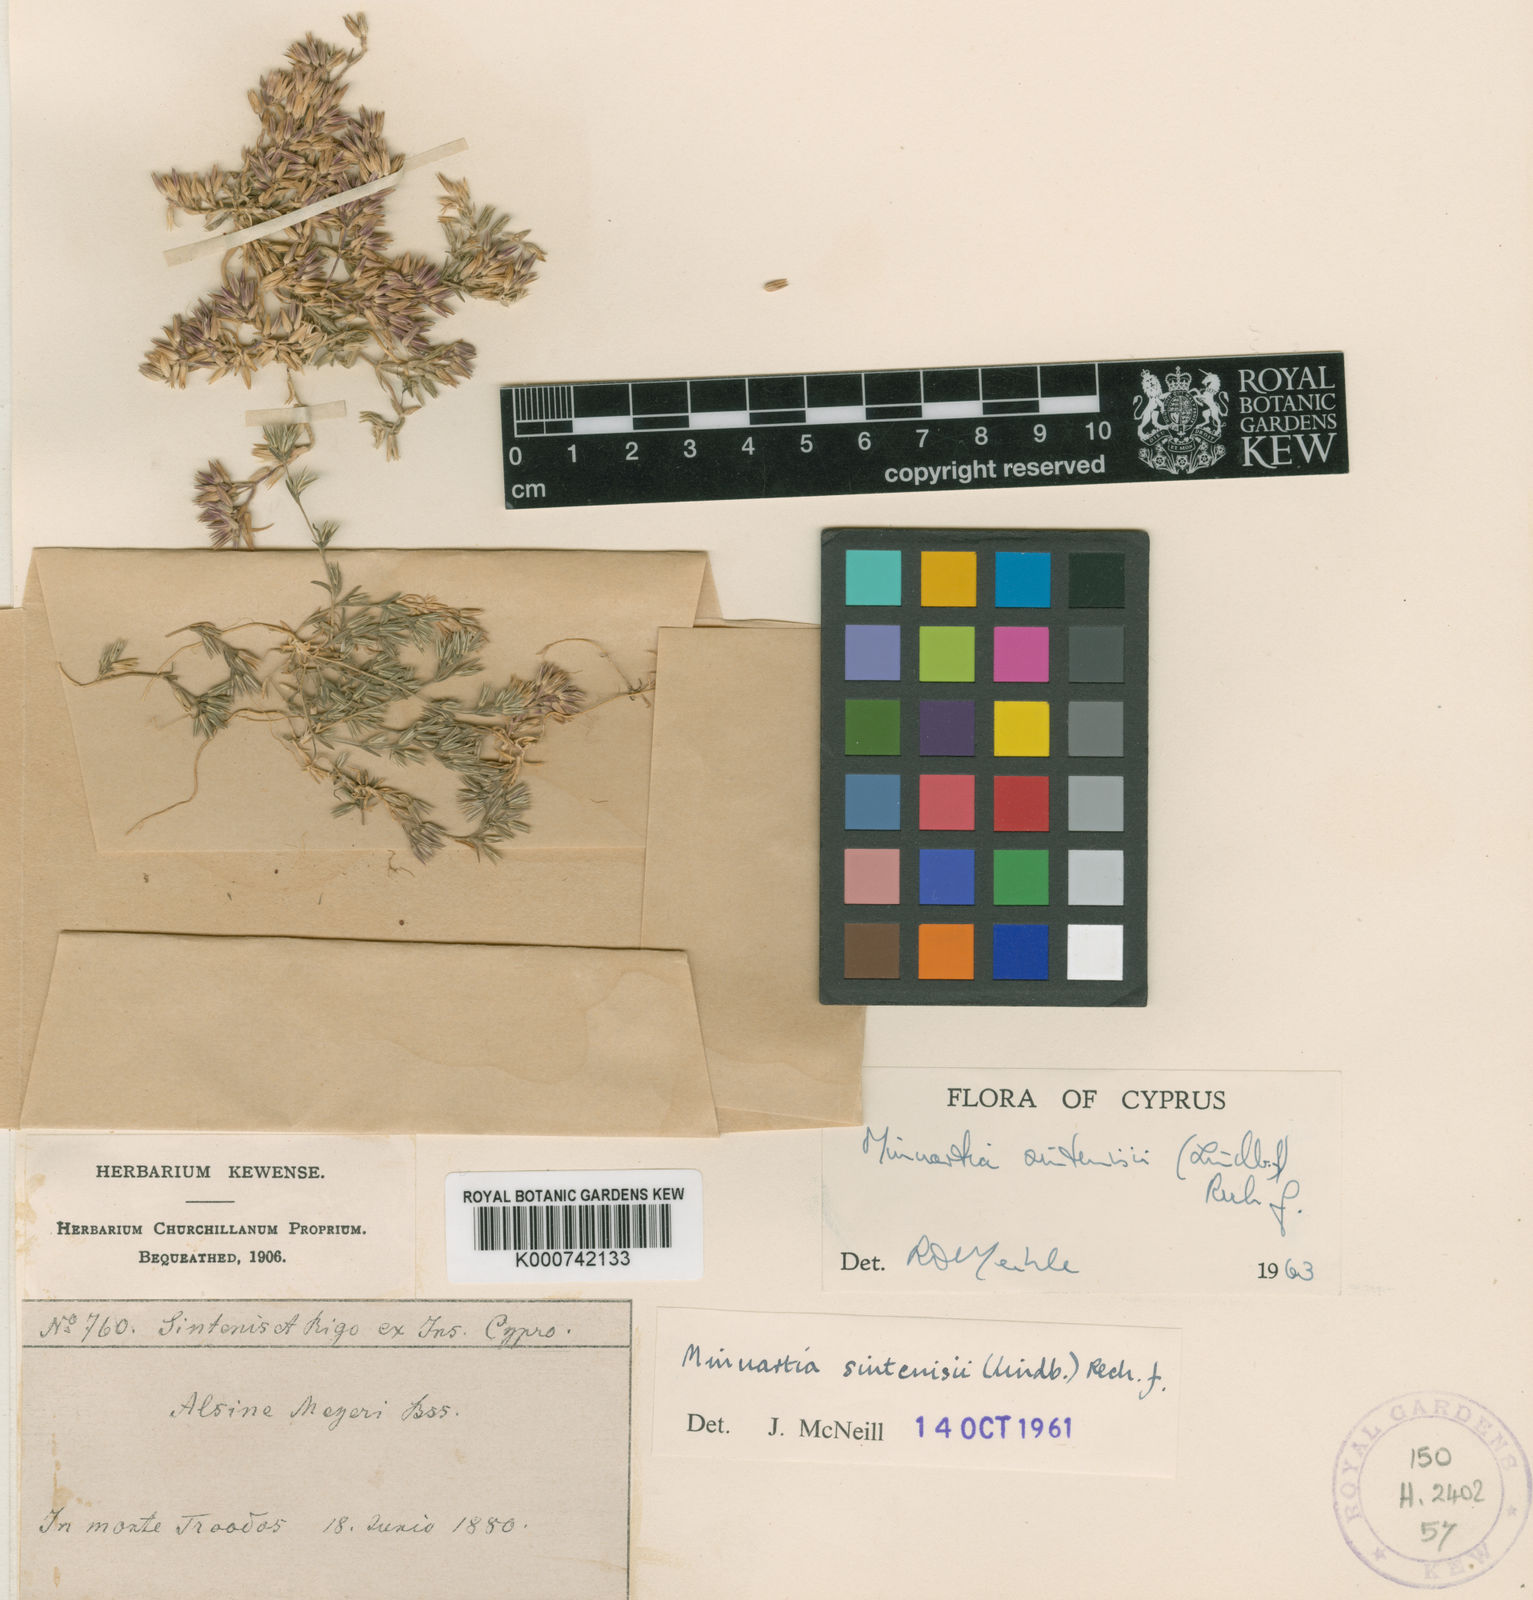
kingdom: Plantae
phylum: Tracheophyta
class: Magnoliopsida
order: Caryophyllales
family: Caryophyllaceae
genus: Minuartia
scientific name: Minuartia meyeri
